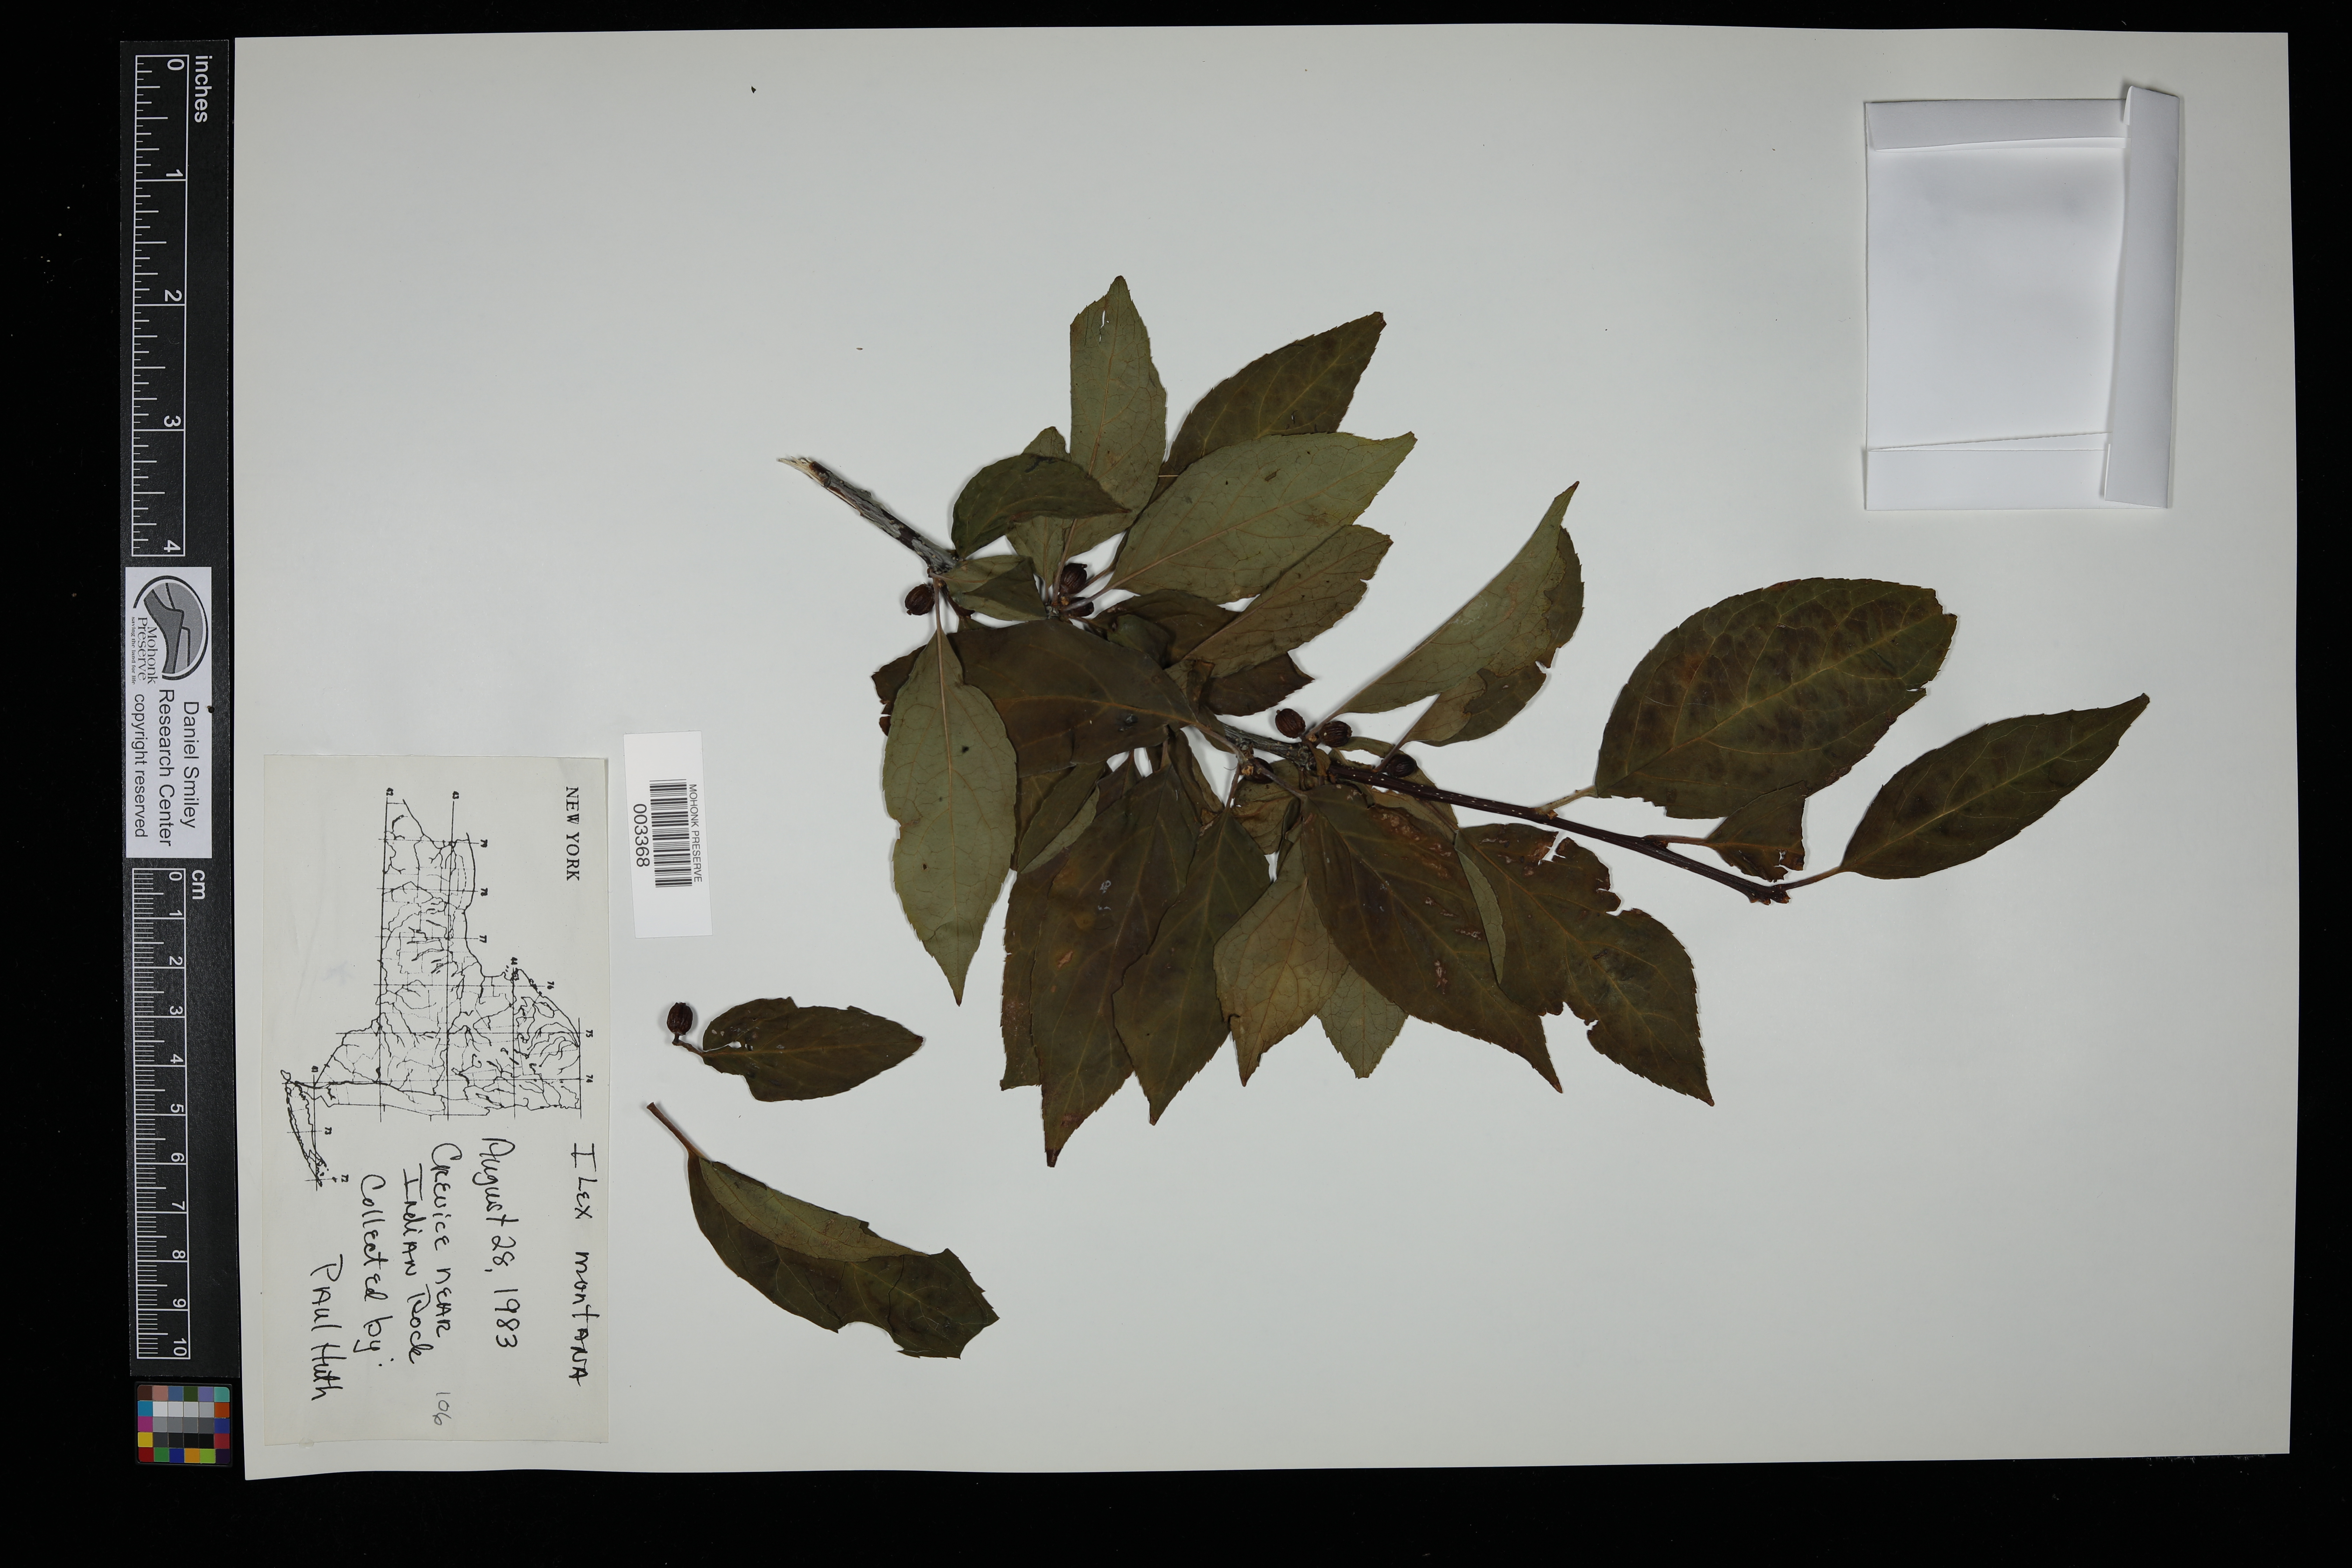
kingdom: Plantae
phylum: Tracheophyta
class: Magnoliopsida
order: Aquifoliales
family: Aquifoliaceae
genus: Ilex
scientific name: Ilex montana
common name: Mountain winterberry
